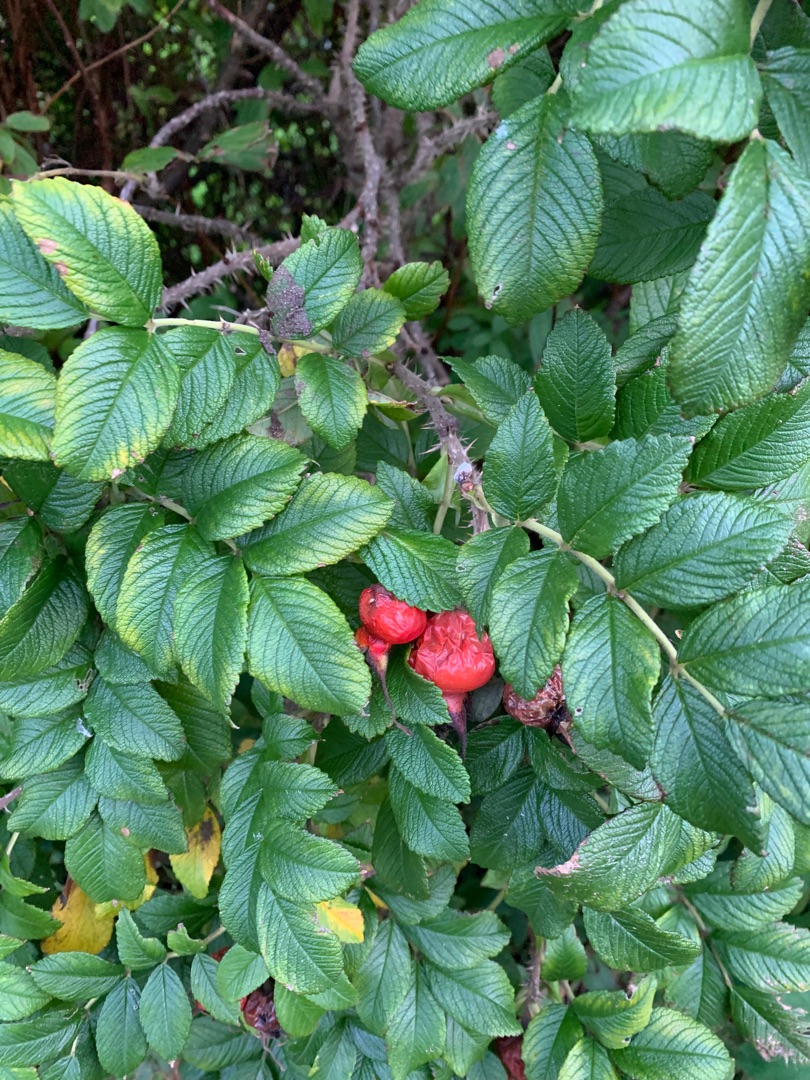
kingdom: Plantae
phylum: Tracheophyta
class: Magnoliopsida
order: Rosales
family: Rosaceae
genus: Rosa
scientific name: Rosa rugosa
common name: Rynket rose
